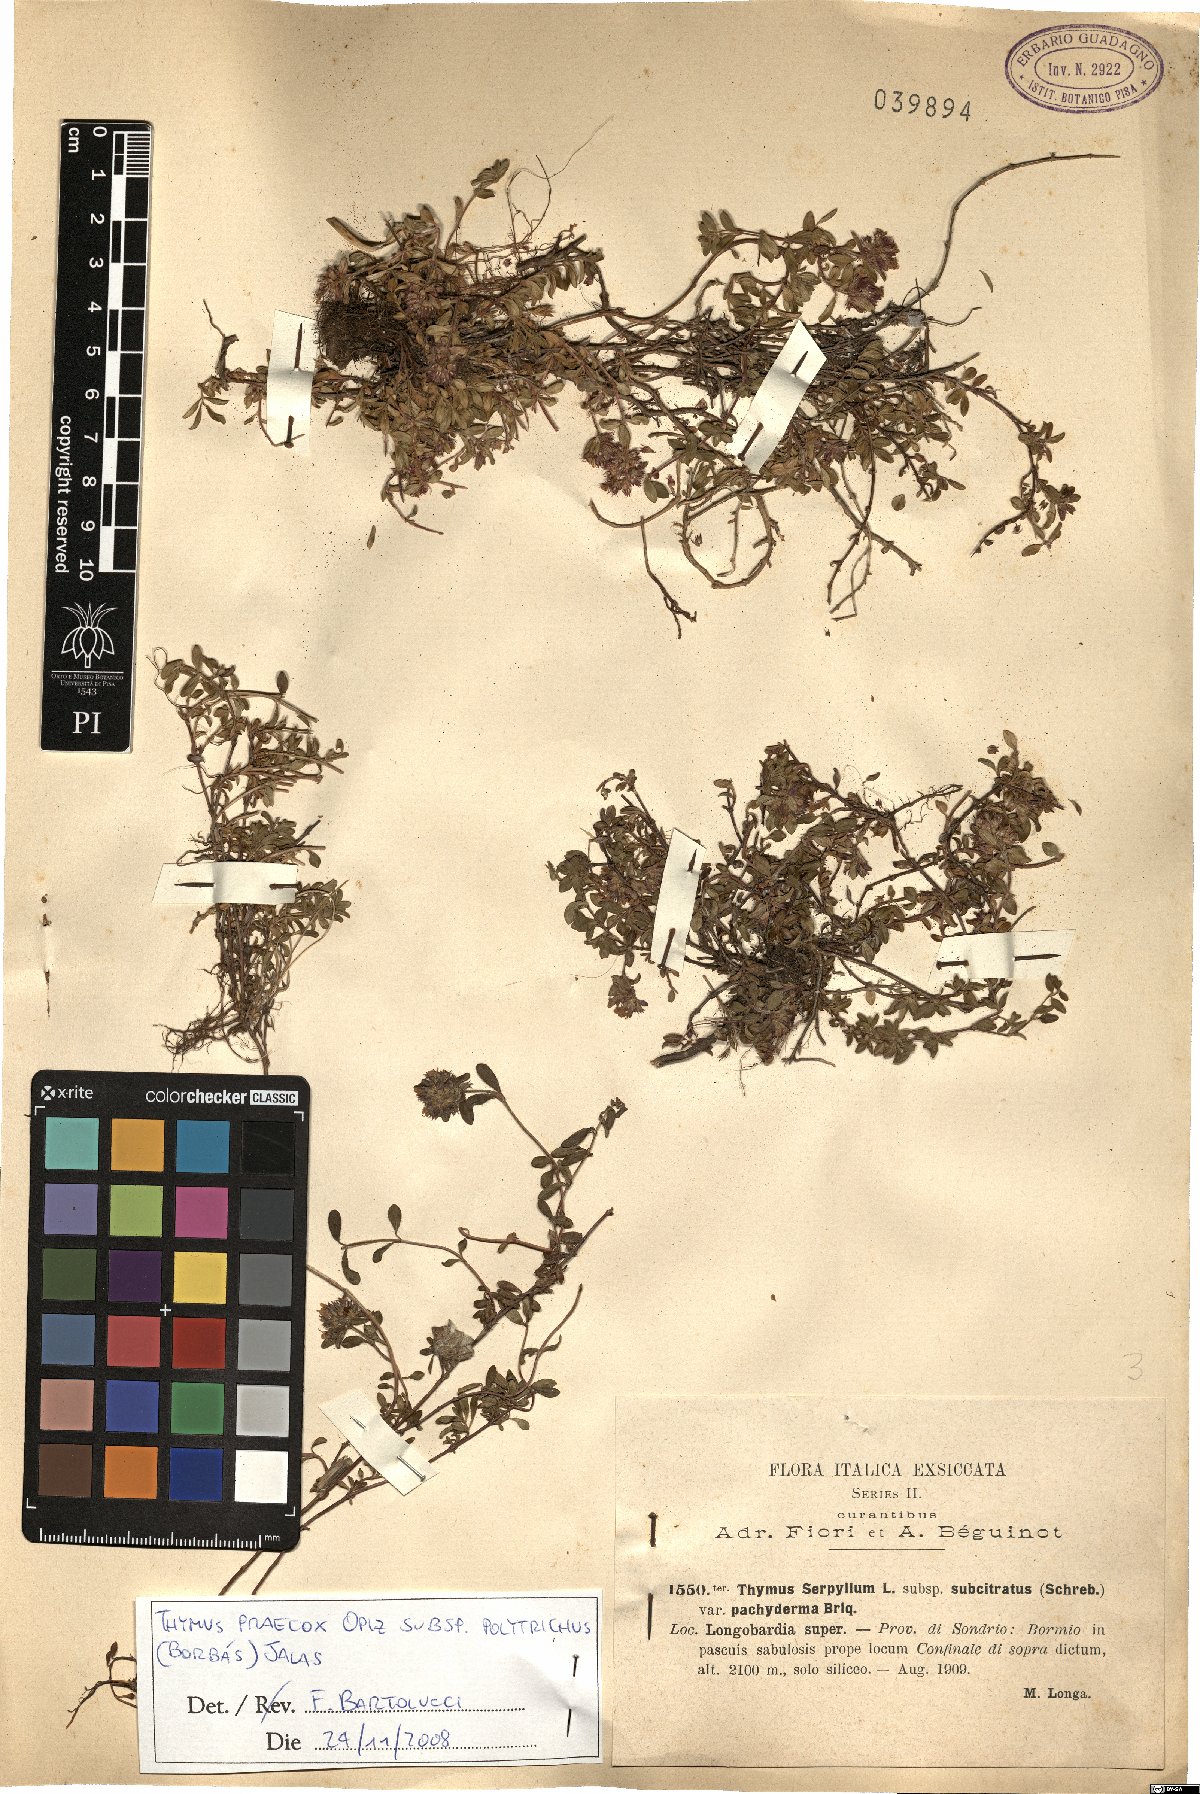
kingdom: Plantae
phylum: Tracheophyta
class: Magnoliopsida
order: Lamiales
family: Lamiaceae
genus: Thymus
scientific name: Thymus praecox
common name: Wild thyme
